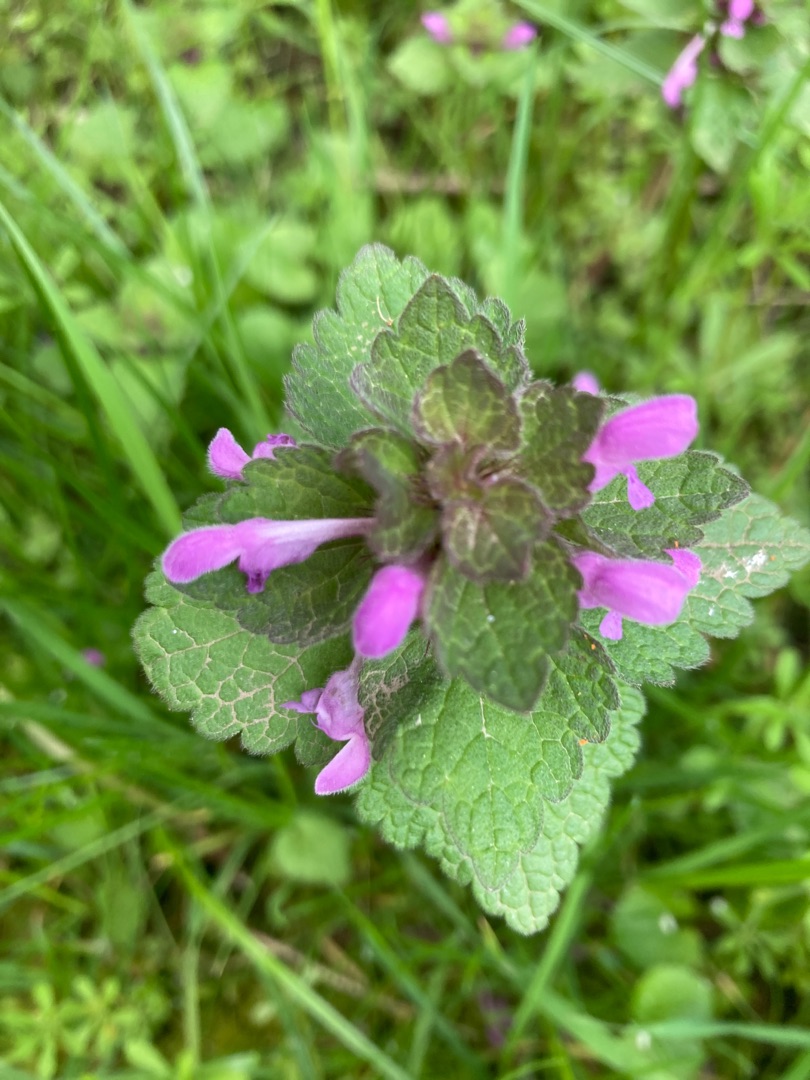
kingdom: Plantae
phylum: Tracheophyta
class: Magnoliopsida
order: Lamiales
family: Lamiaceae
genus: Lamium
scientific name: Lamium purpureum
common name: Rød tvetand
